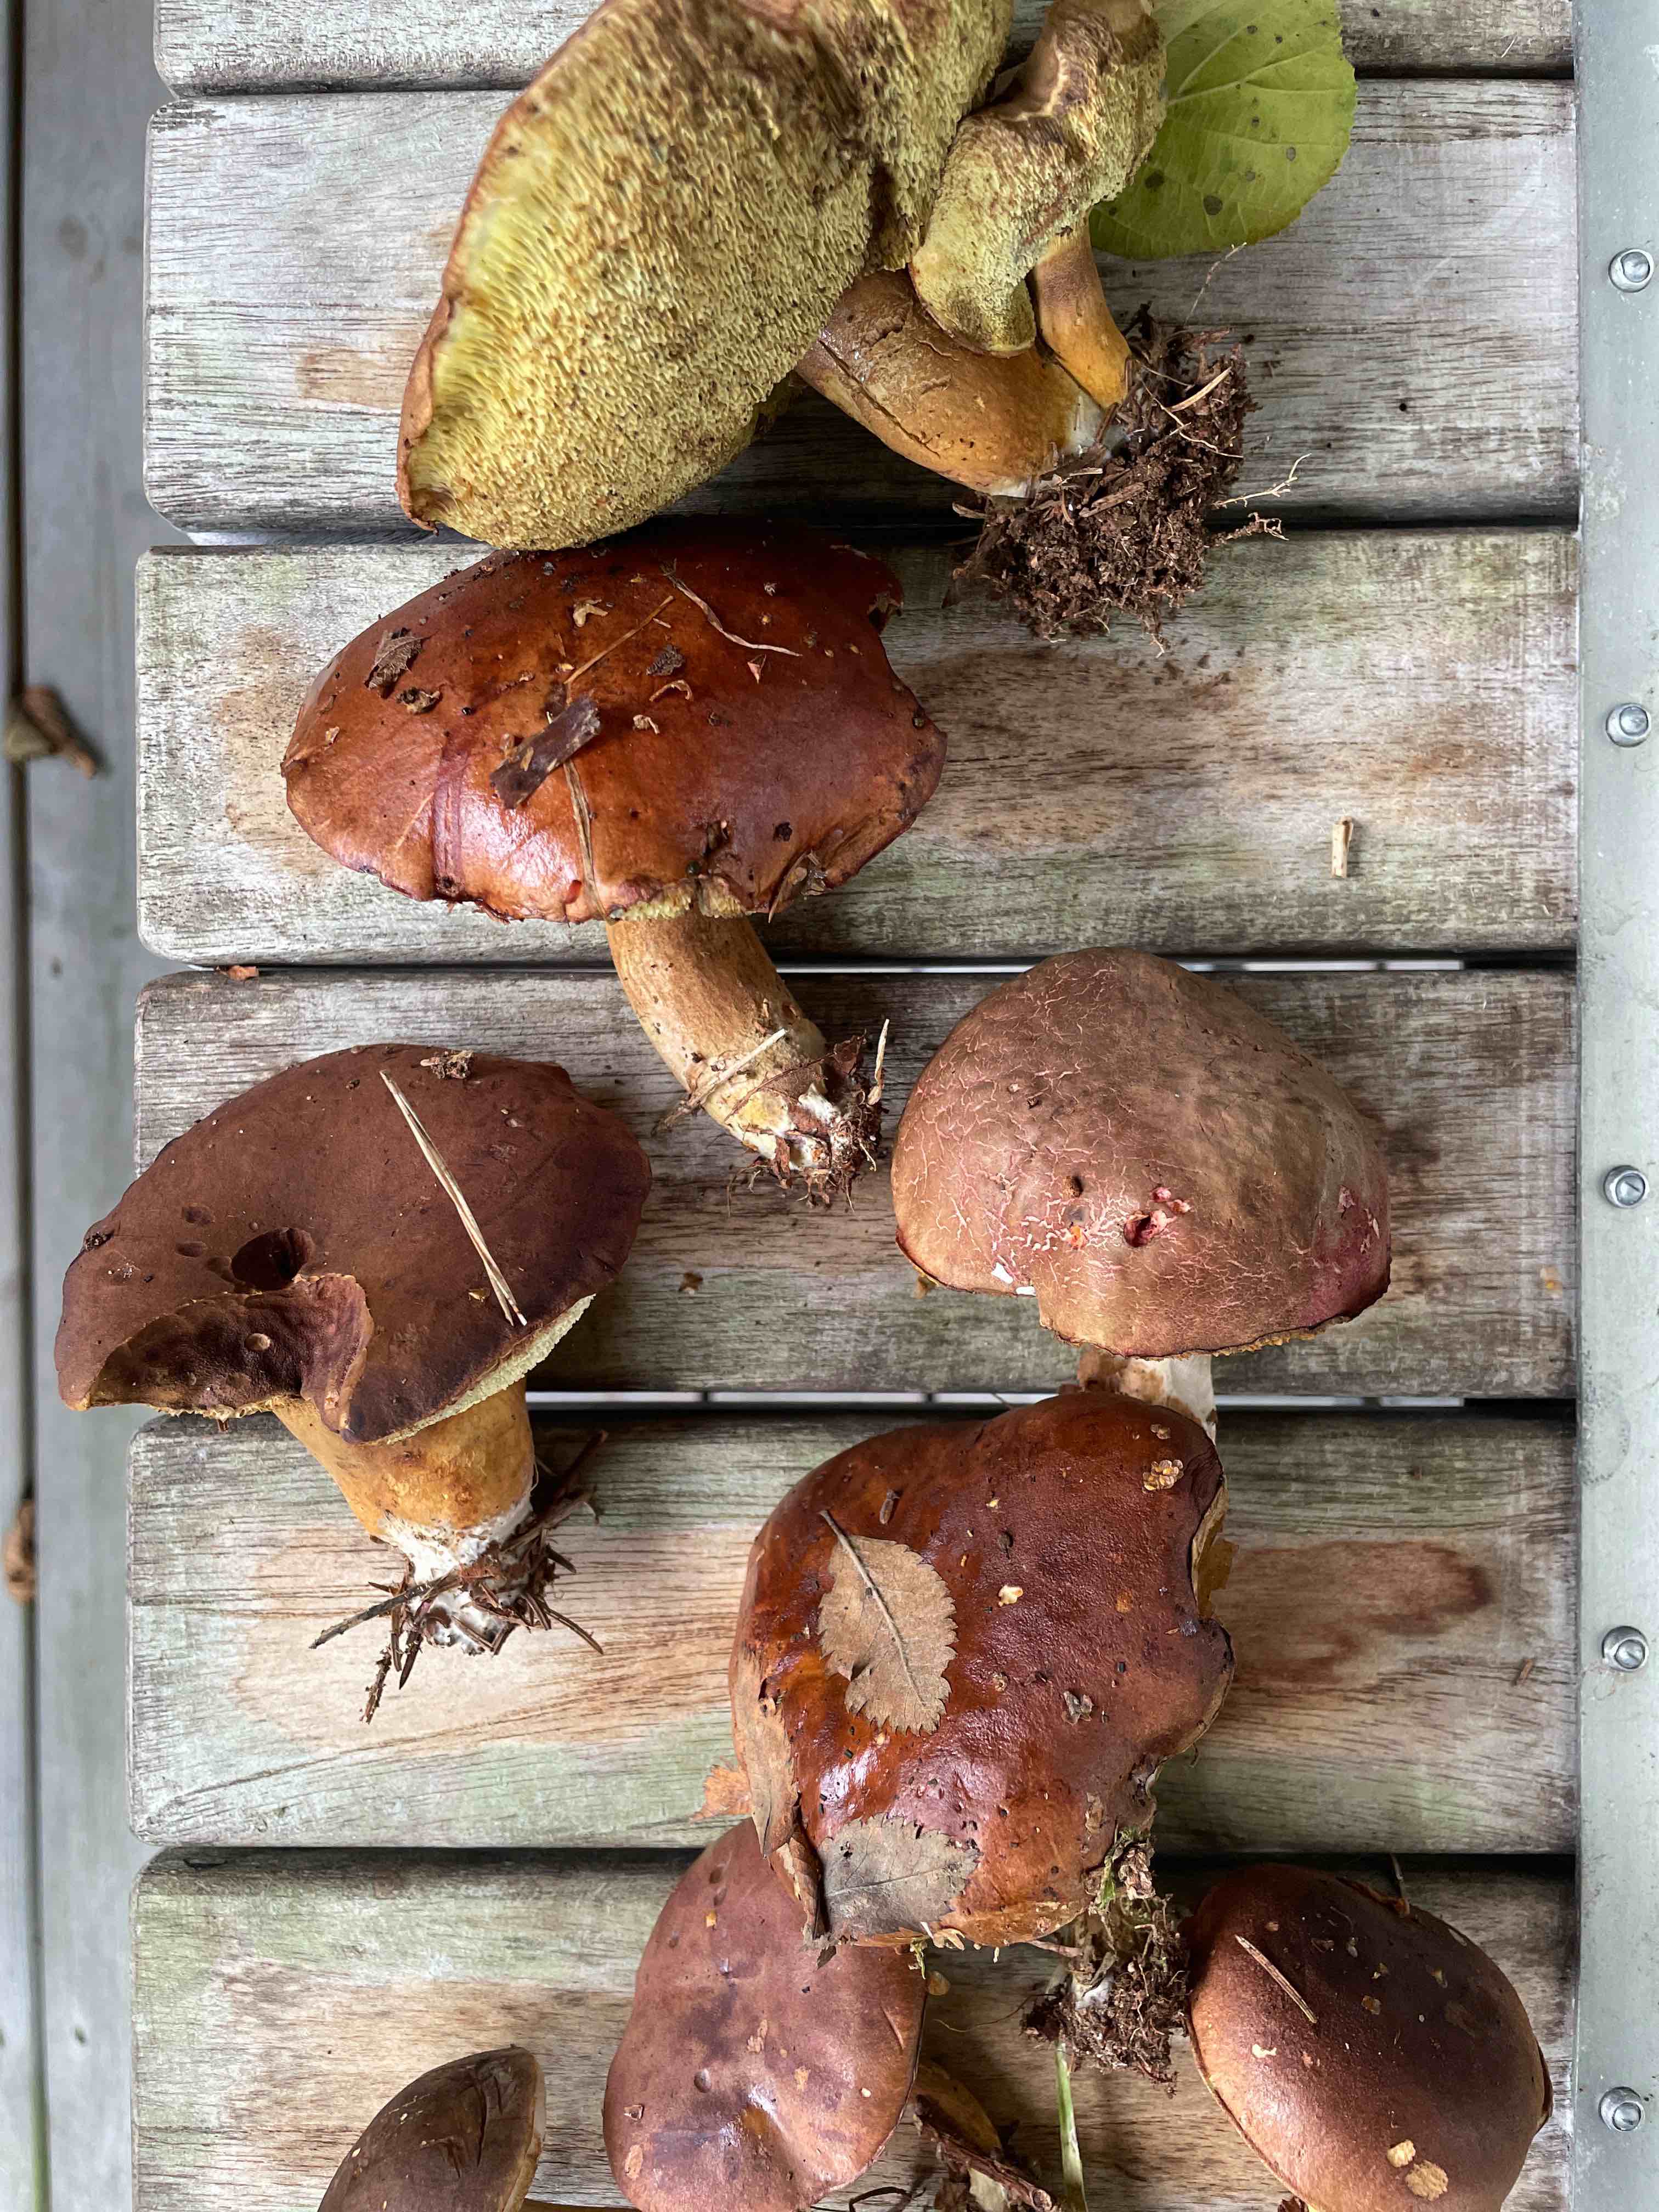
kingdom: Fungi
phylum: Basidiomycota
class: Agaricomycetes
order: Boletales
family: Boletaceae
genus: Imleria
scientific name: Imleria badia
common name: brunstokket rørhat
